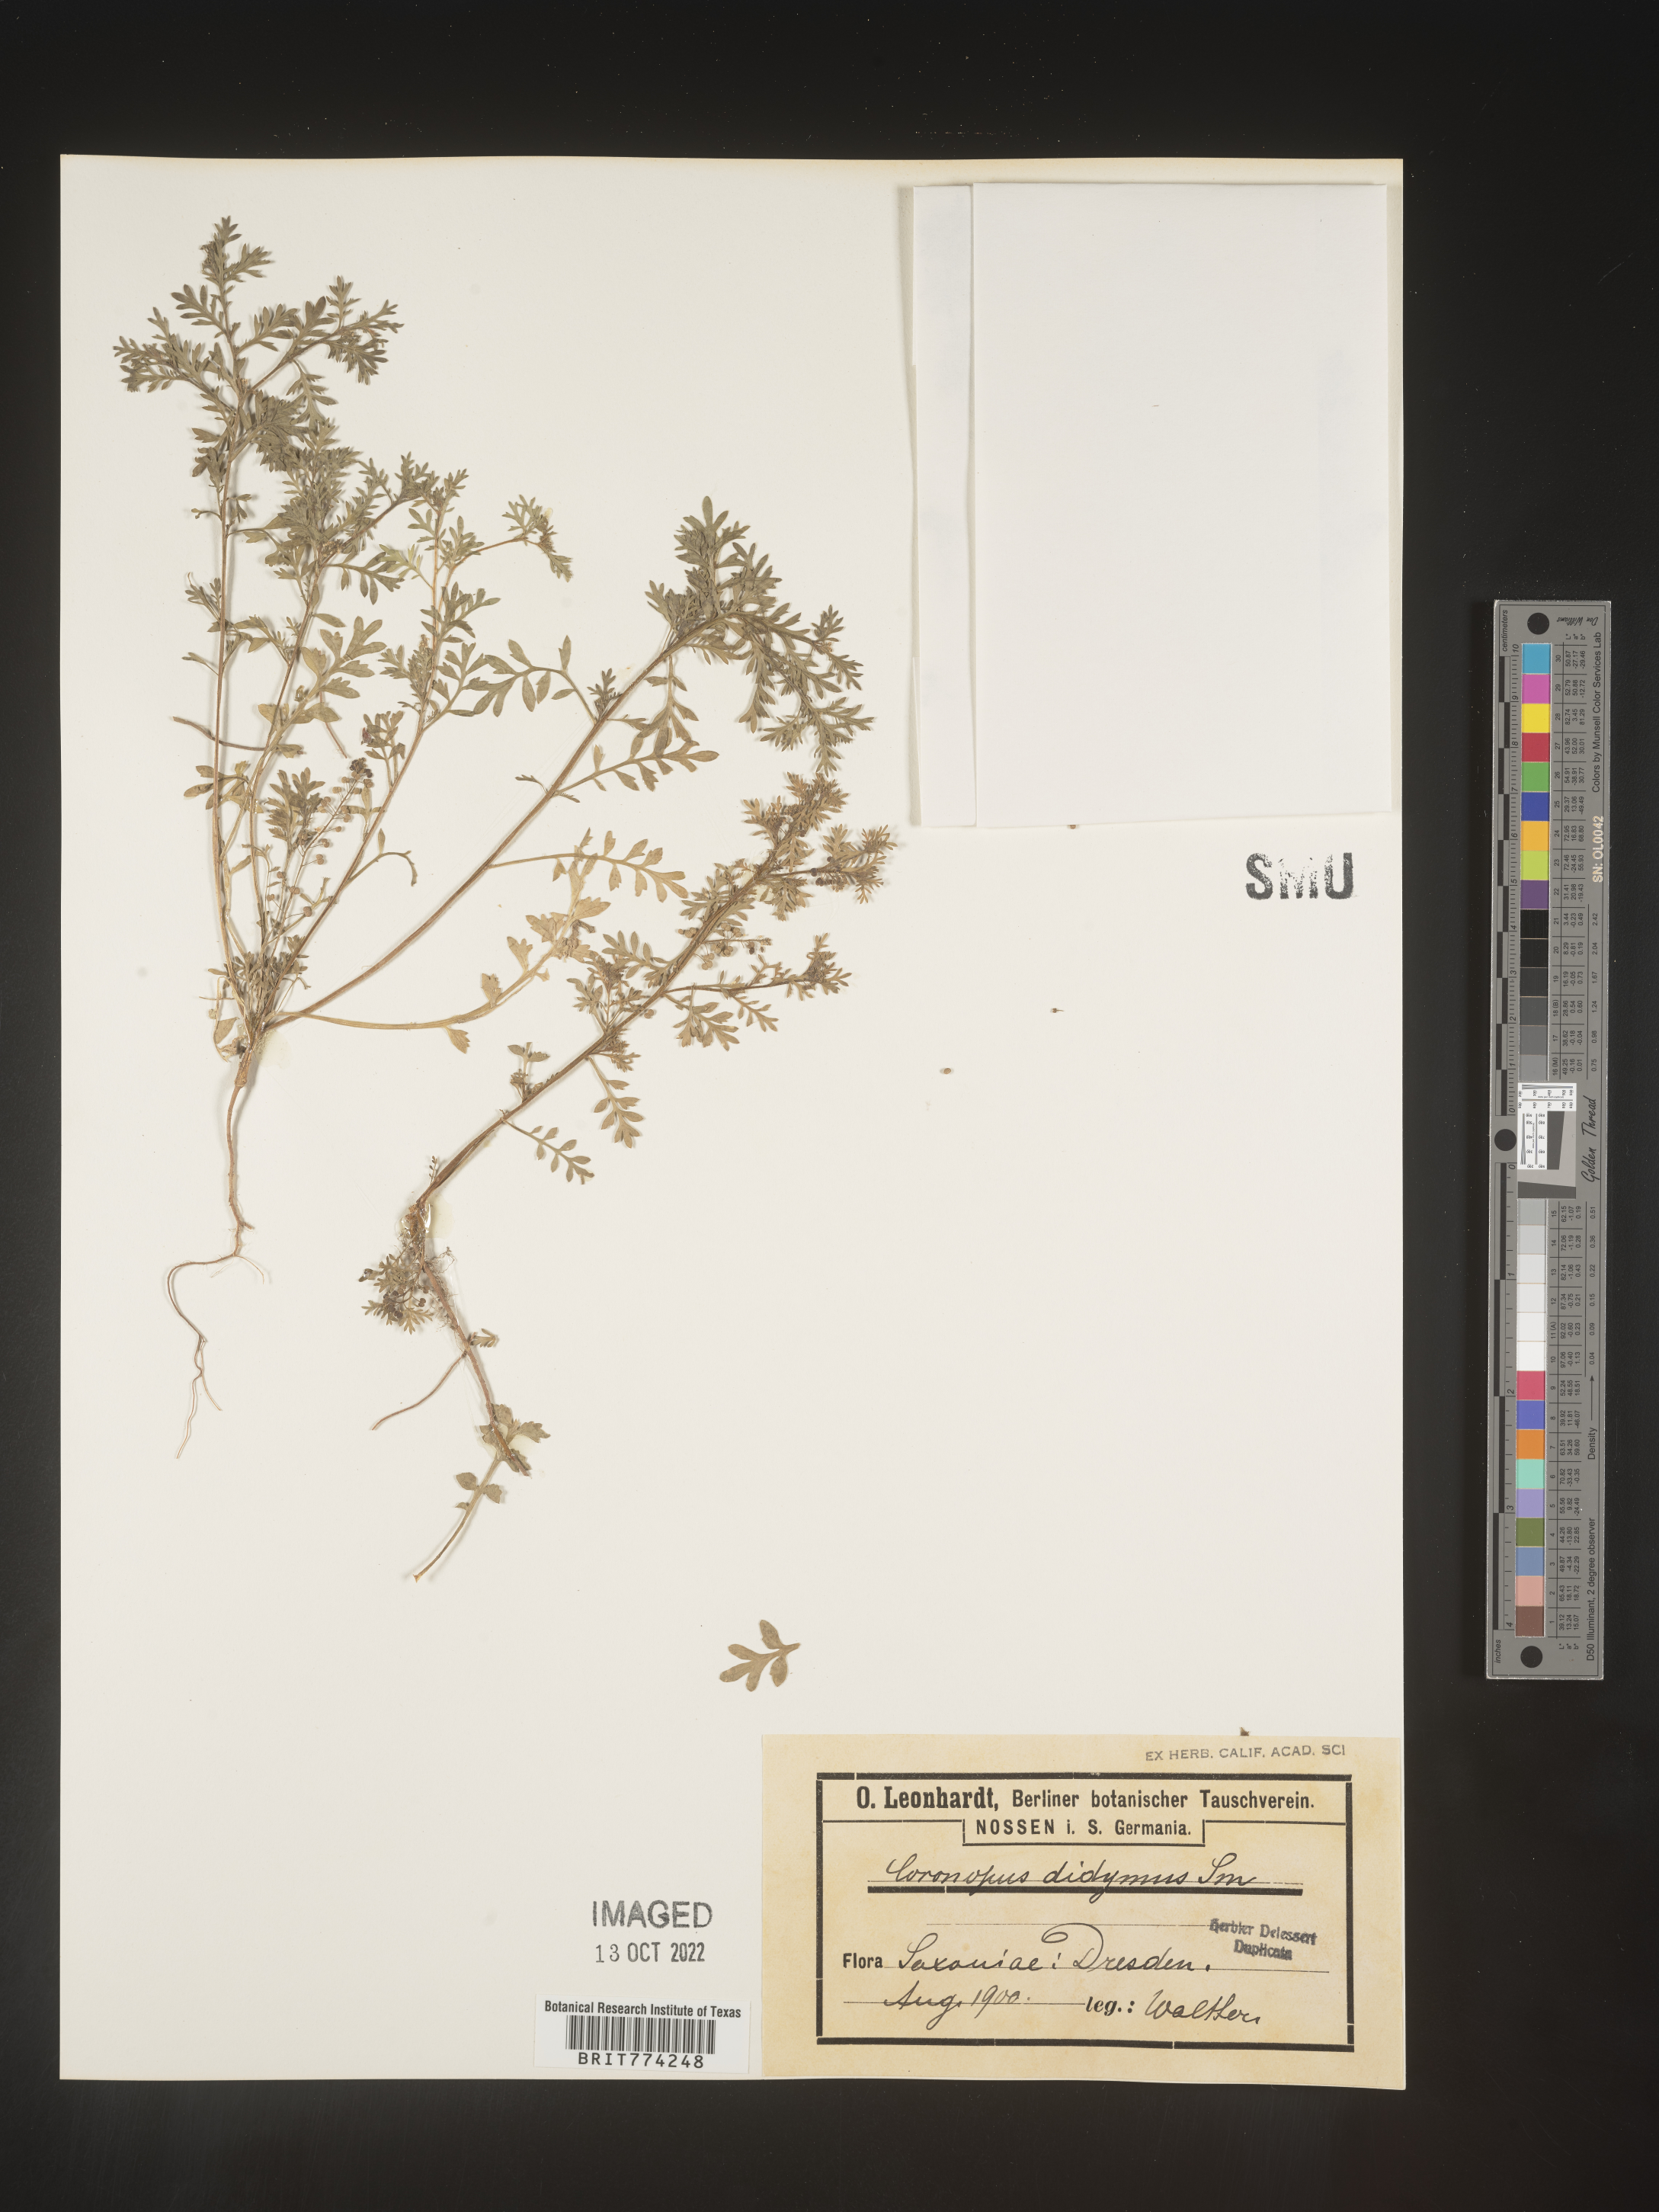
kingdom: Plantae
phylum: Tracheophyta
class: Magnoliopsida
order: Brassicales
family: Brassicaceae
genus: Coronopus
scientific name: Coronopus
